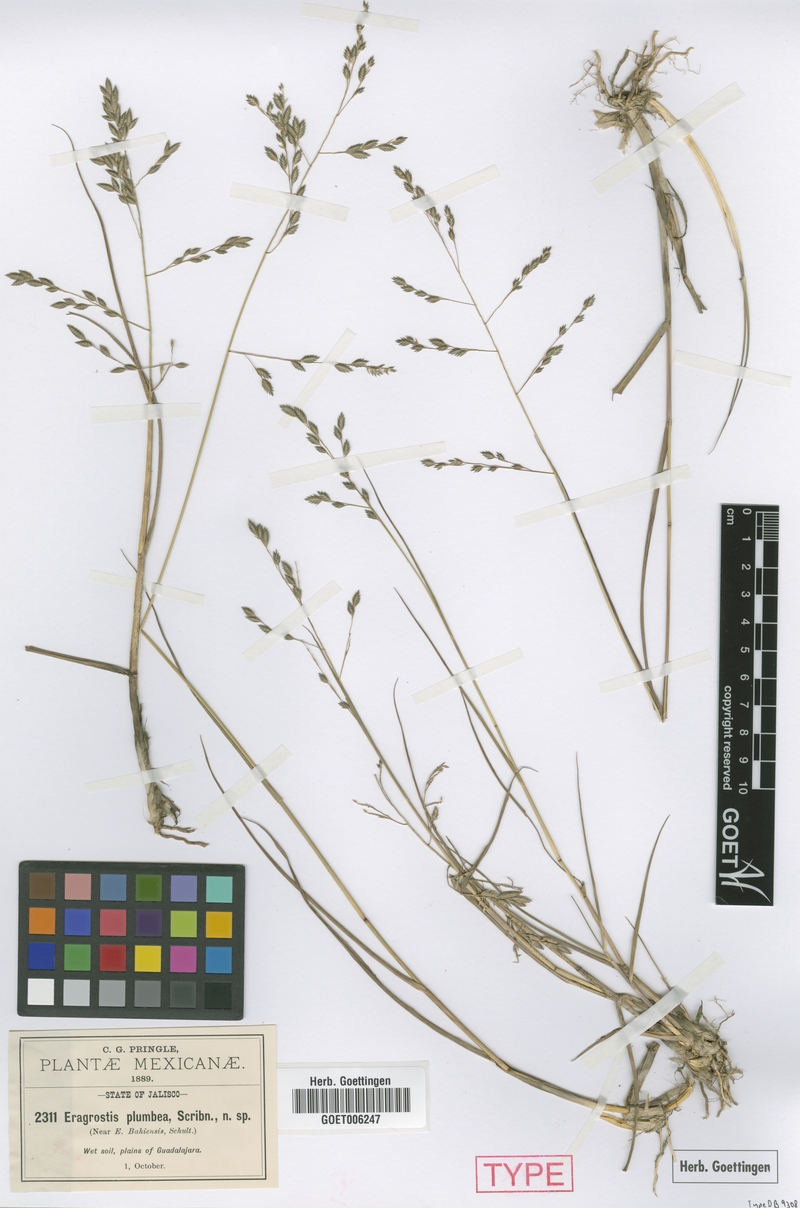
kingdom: Plantae
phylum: Tracheophyta
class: Liliopsida
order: Poales
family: Poaceae
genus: Eragrostis
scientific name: Eragrostis plumbea
